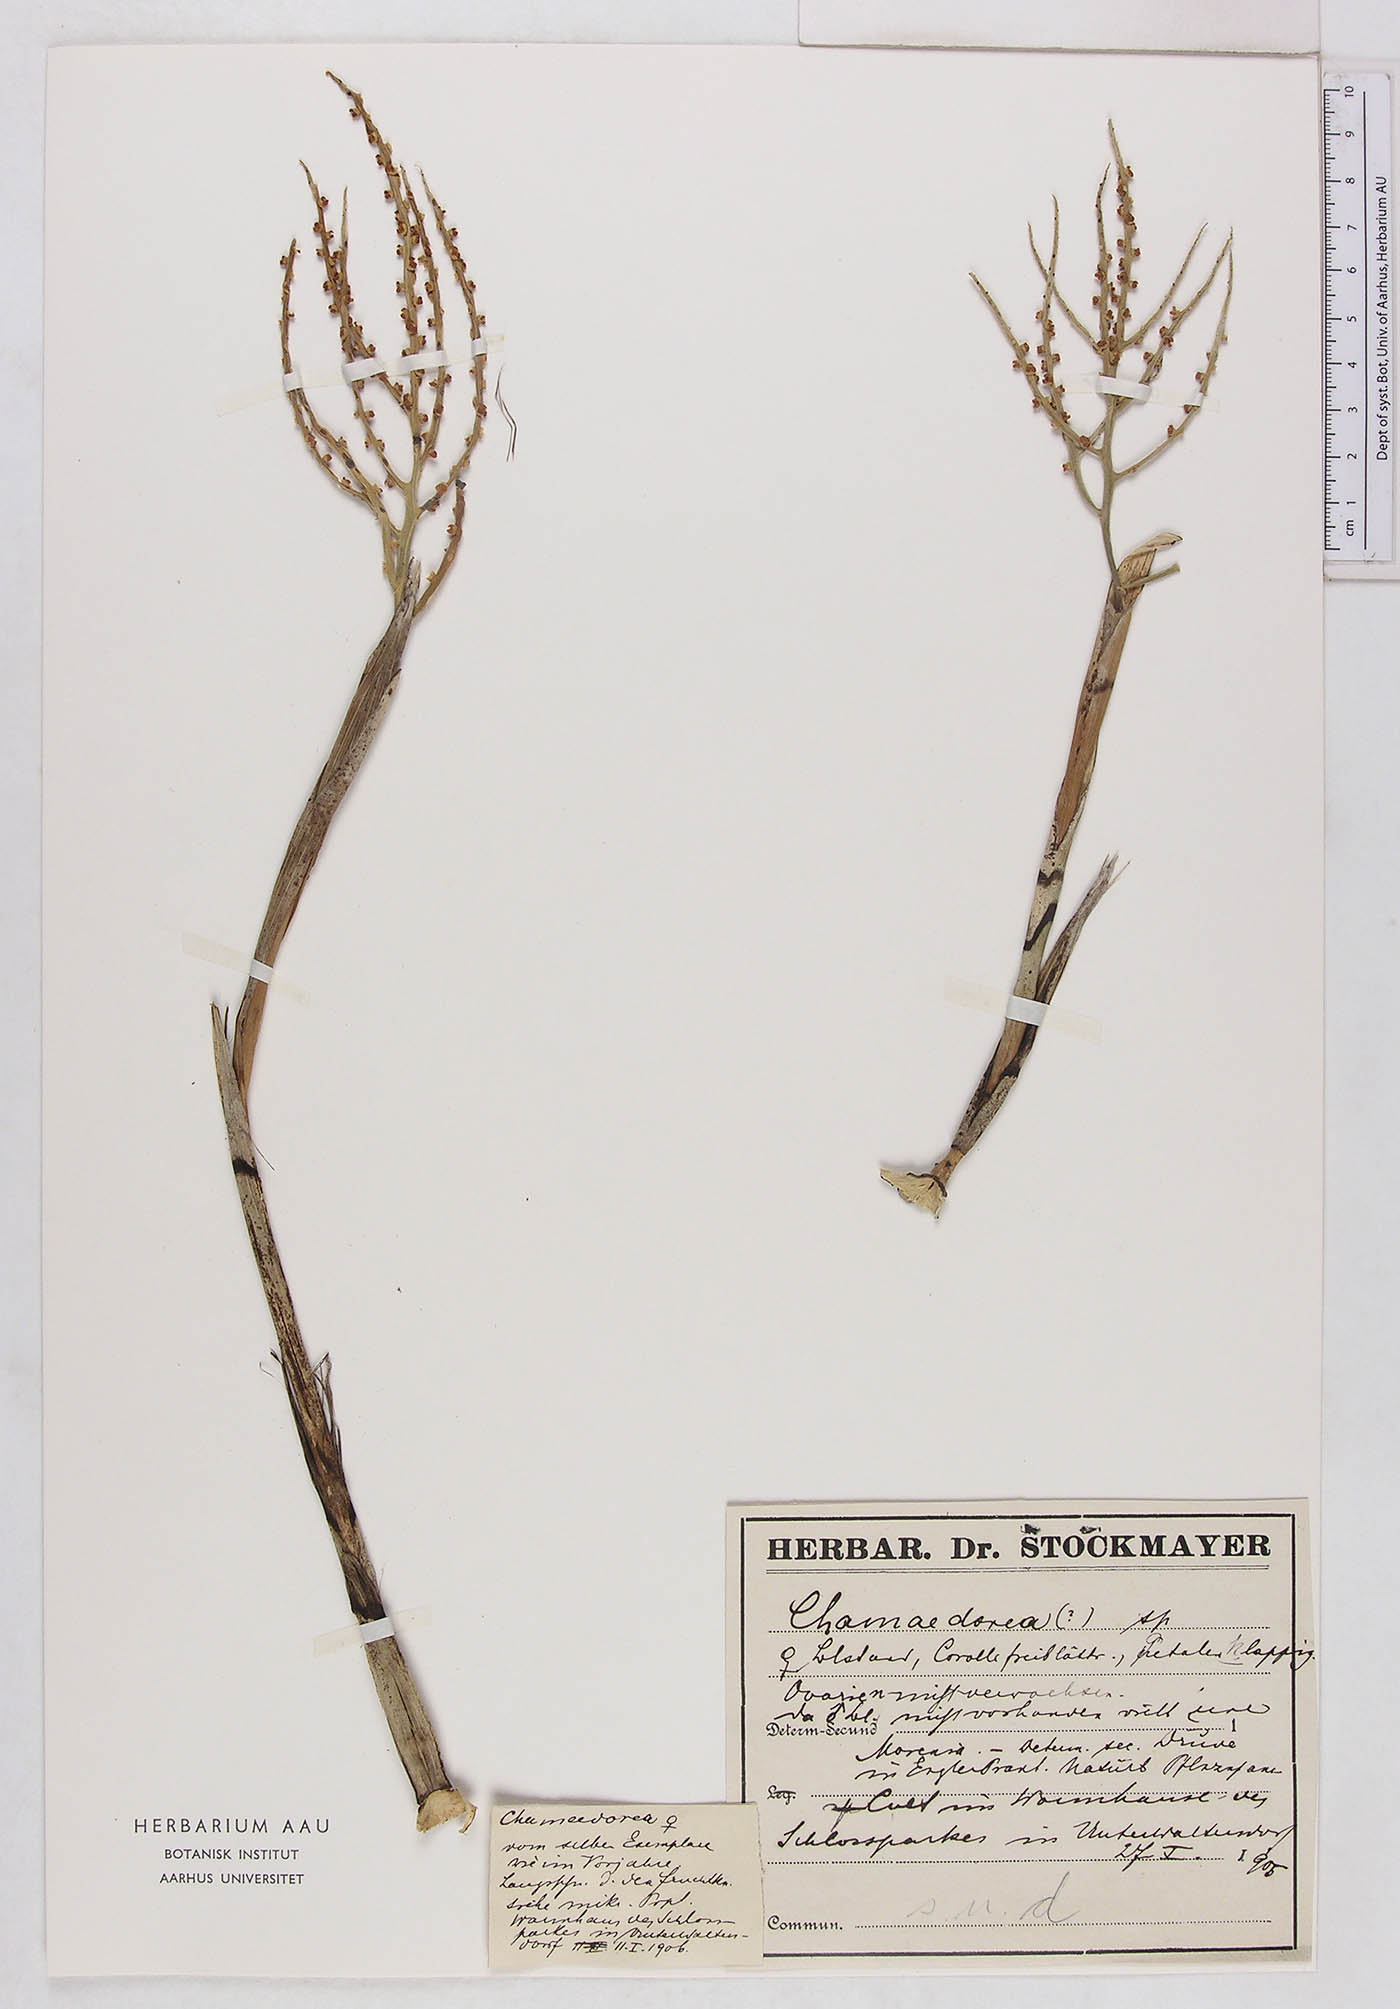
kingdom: Plantae
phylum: Tracheophyta
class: Liliopsida
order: Arecales
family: Arecaceae
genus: Chamaedorea
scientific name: Chamaedorea
